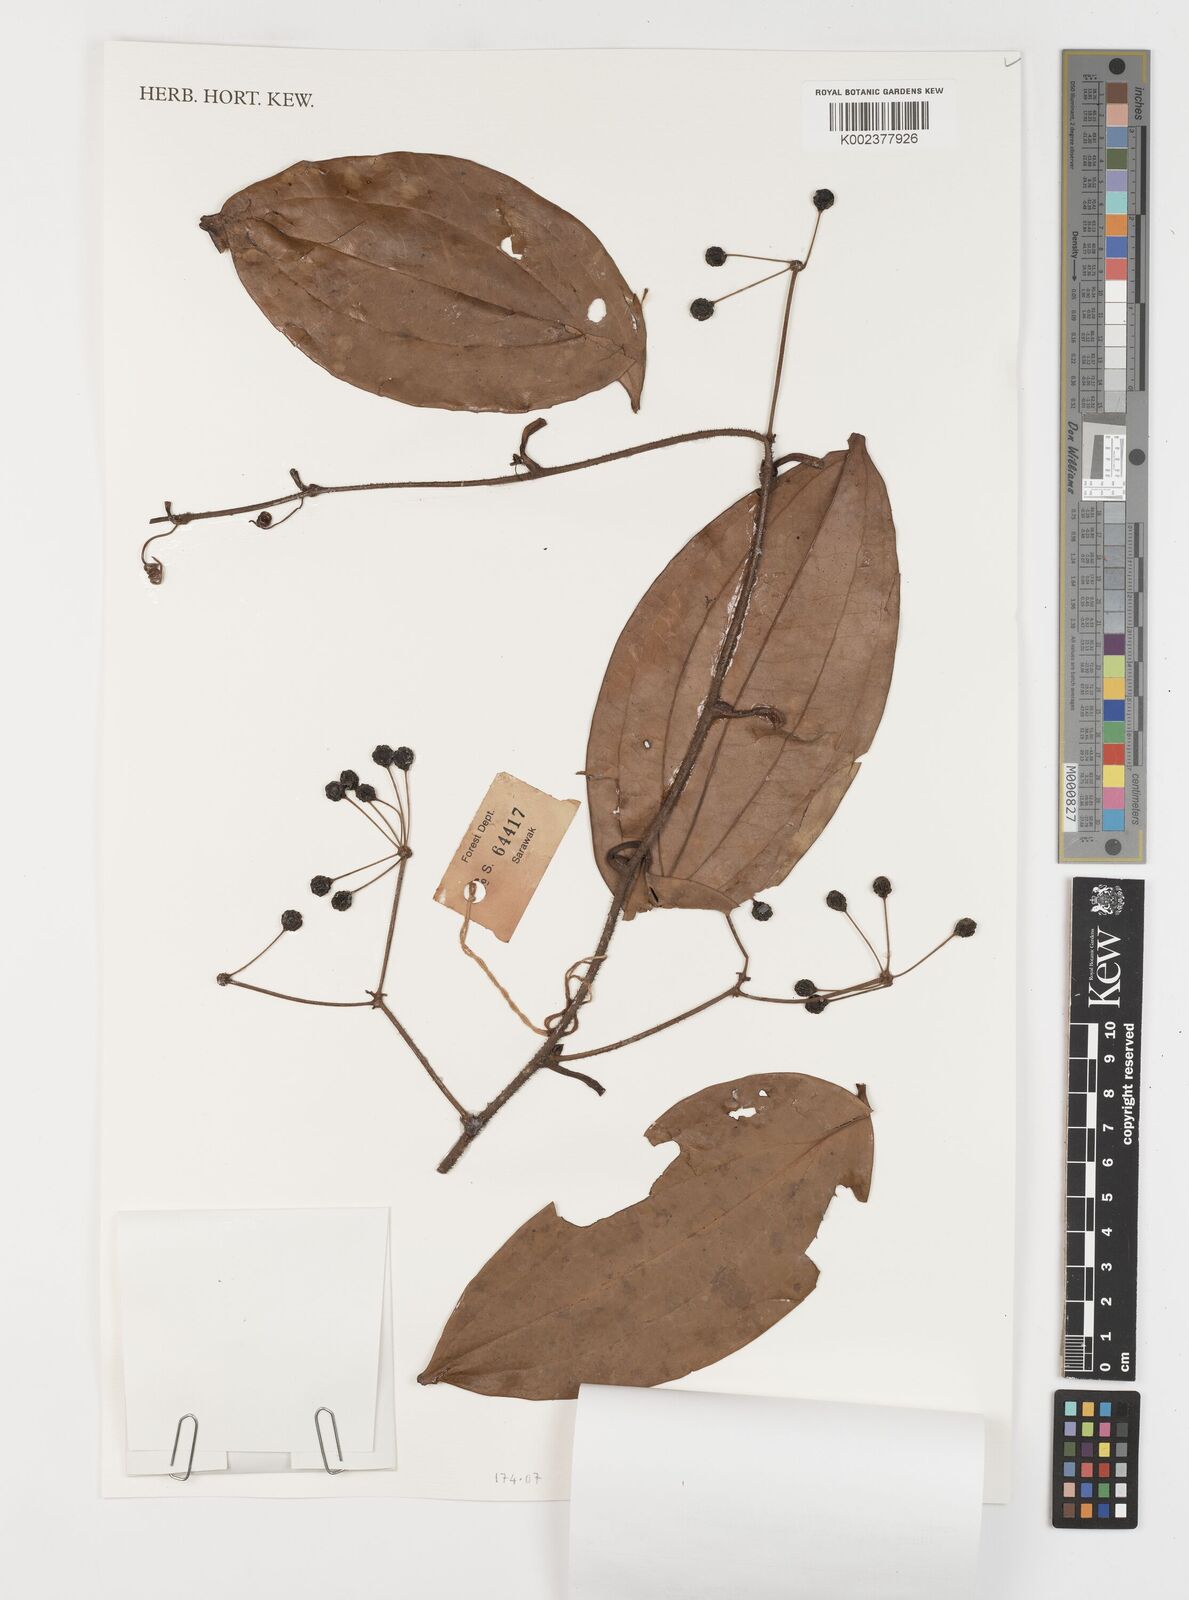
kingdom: Plantae
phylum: Tracheophyta
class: Liliopsida
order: Liliales
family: Smilacaceae
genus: Smilax
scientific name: Smilax
